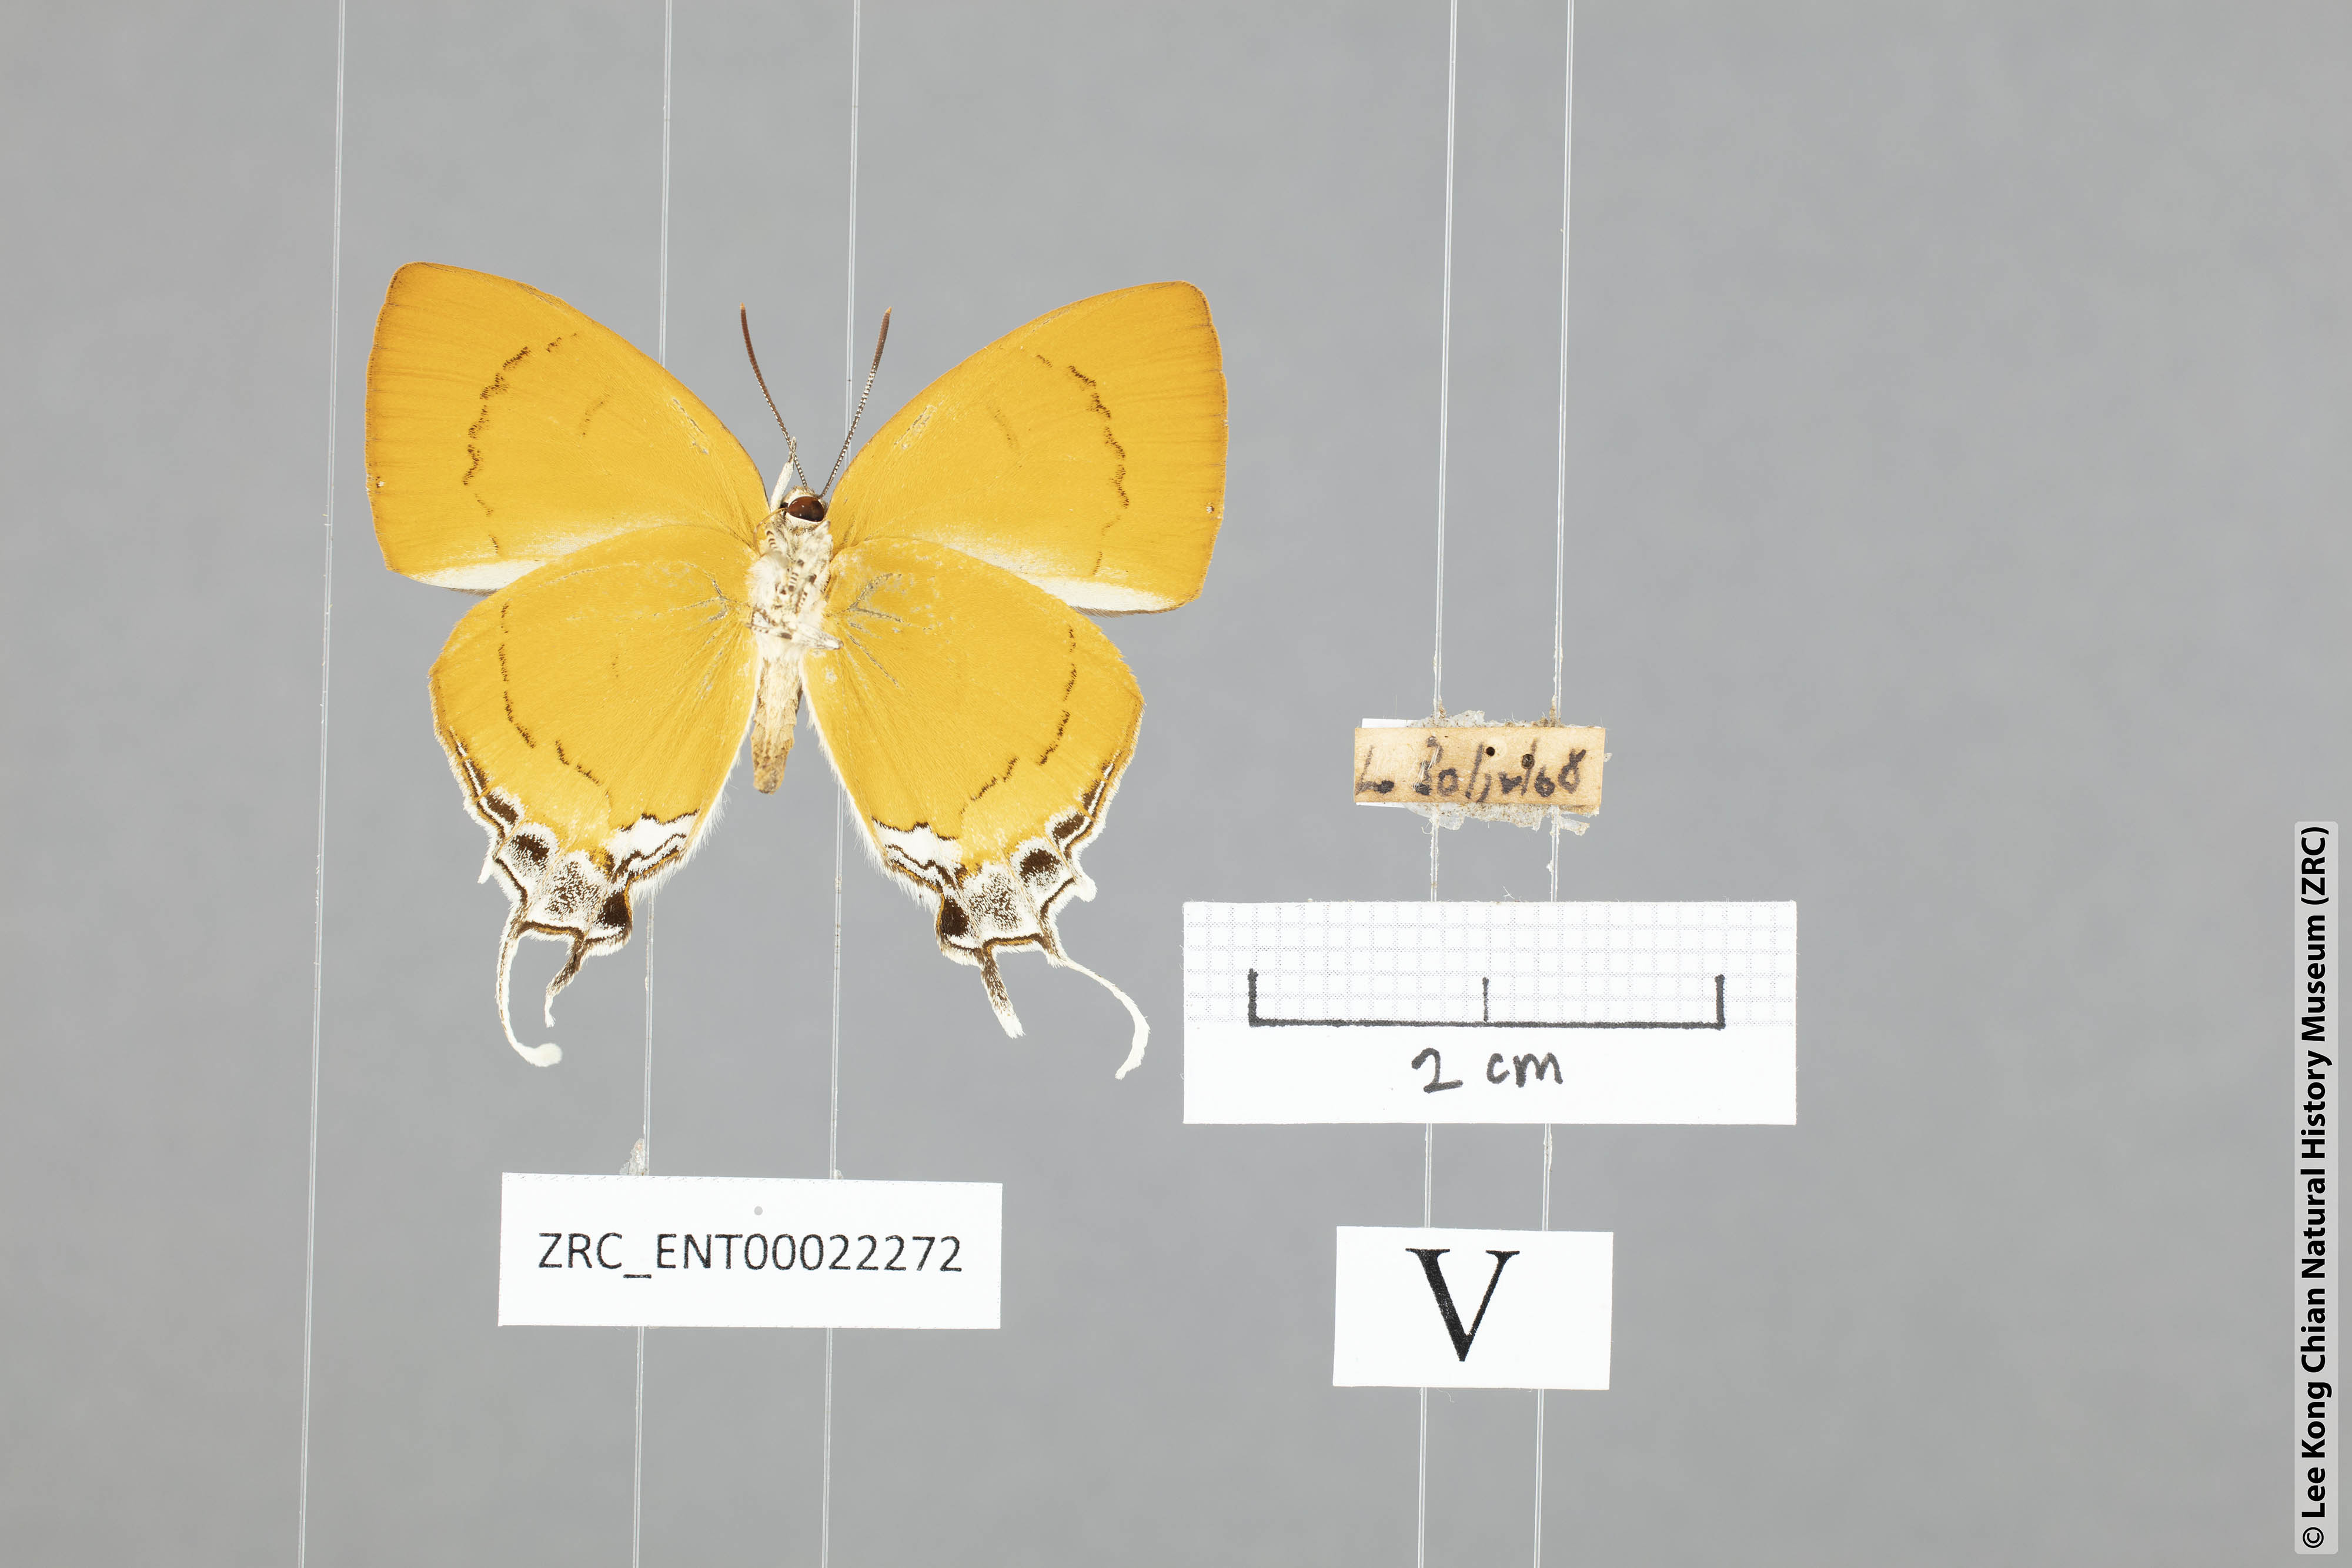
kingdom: Animalia
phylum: Arthropoda
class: Insecta
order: Lepidoptera
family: Lycaenidae
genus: Thamala
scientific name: Thamala marciana
